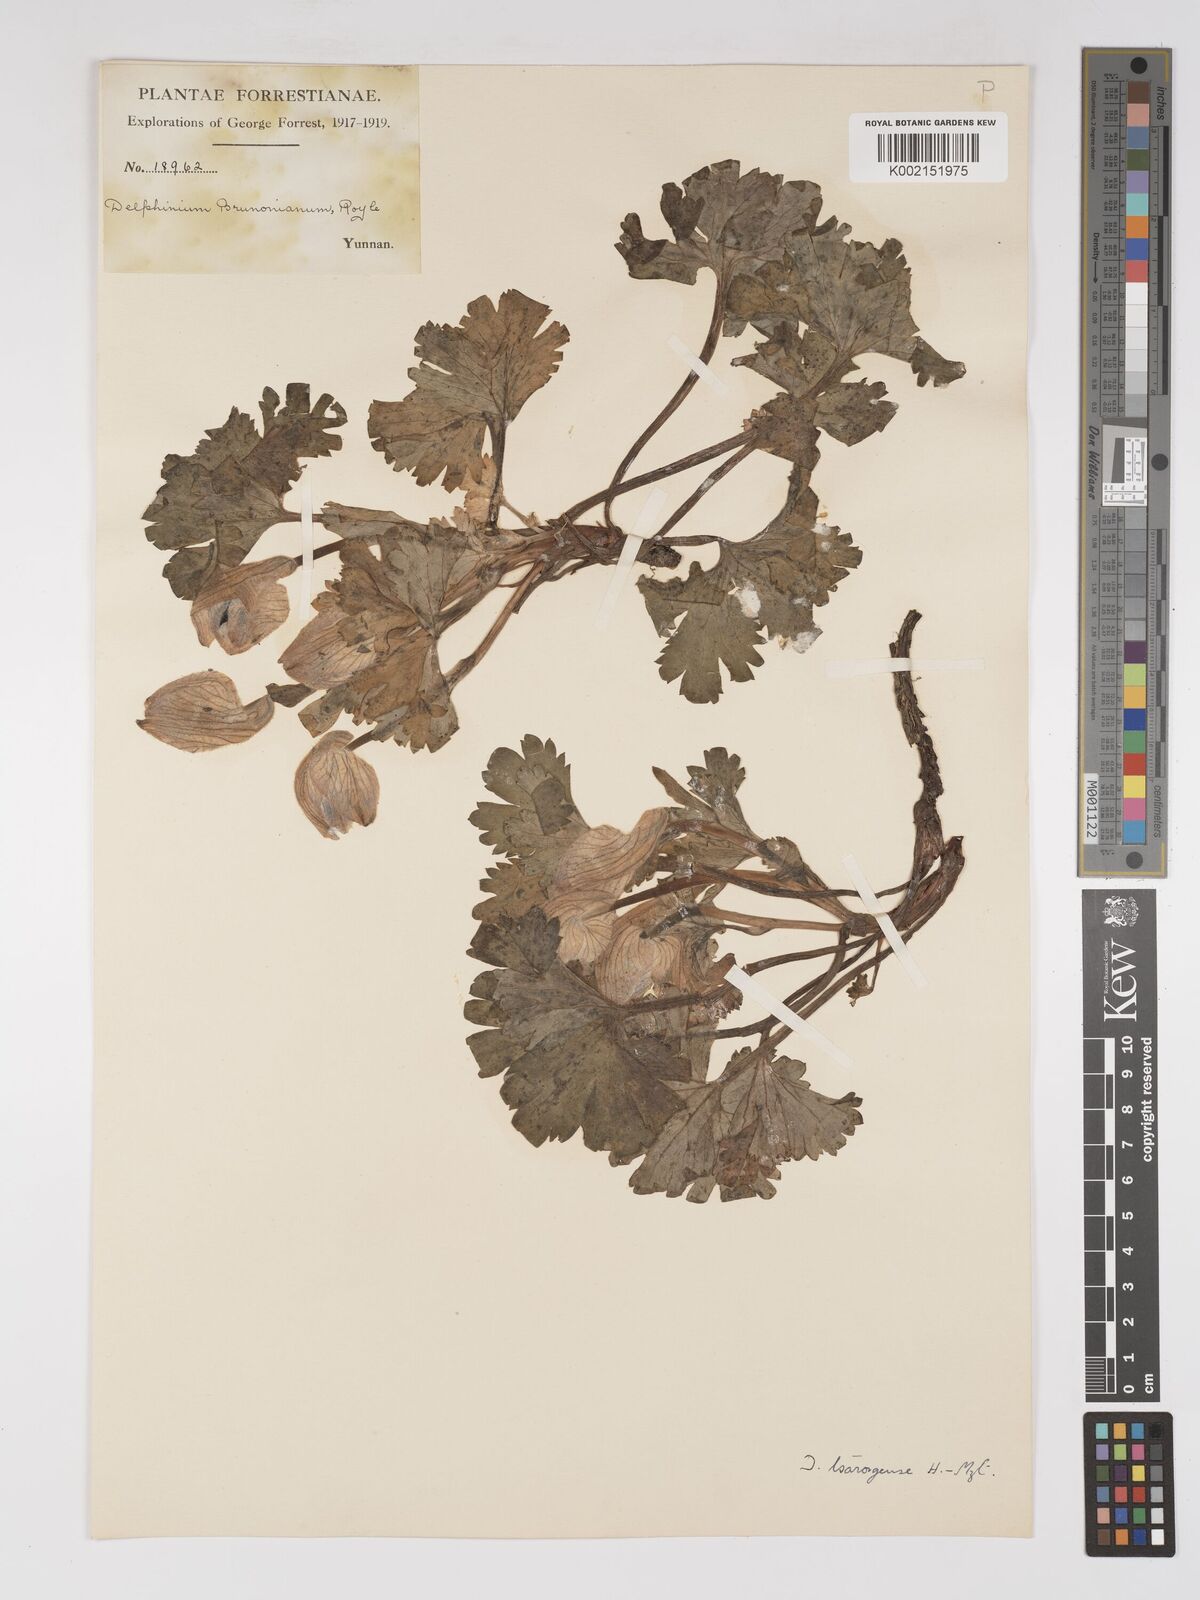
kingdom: Plantae
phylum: Tracheophyta
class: Magnoliopsida
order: Ranunculales
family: Ranunculaceae
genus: Delphinium
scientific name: Delphinium chrysotrichum
